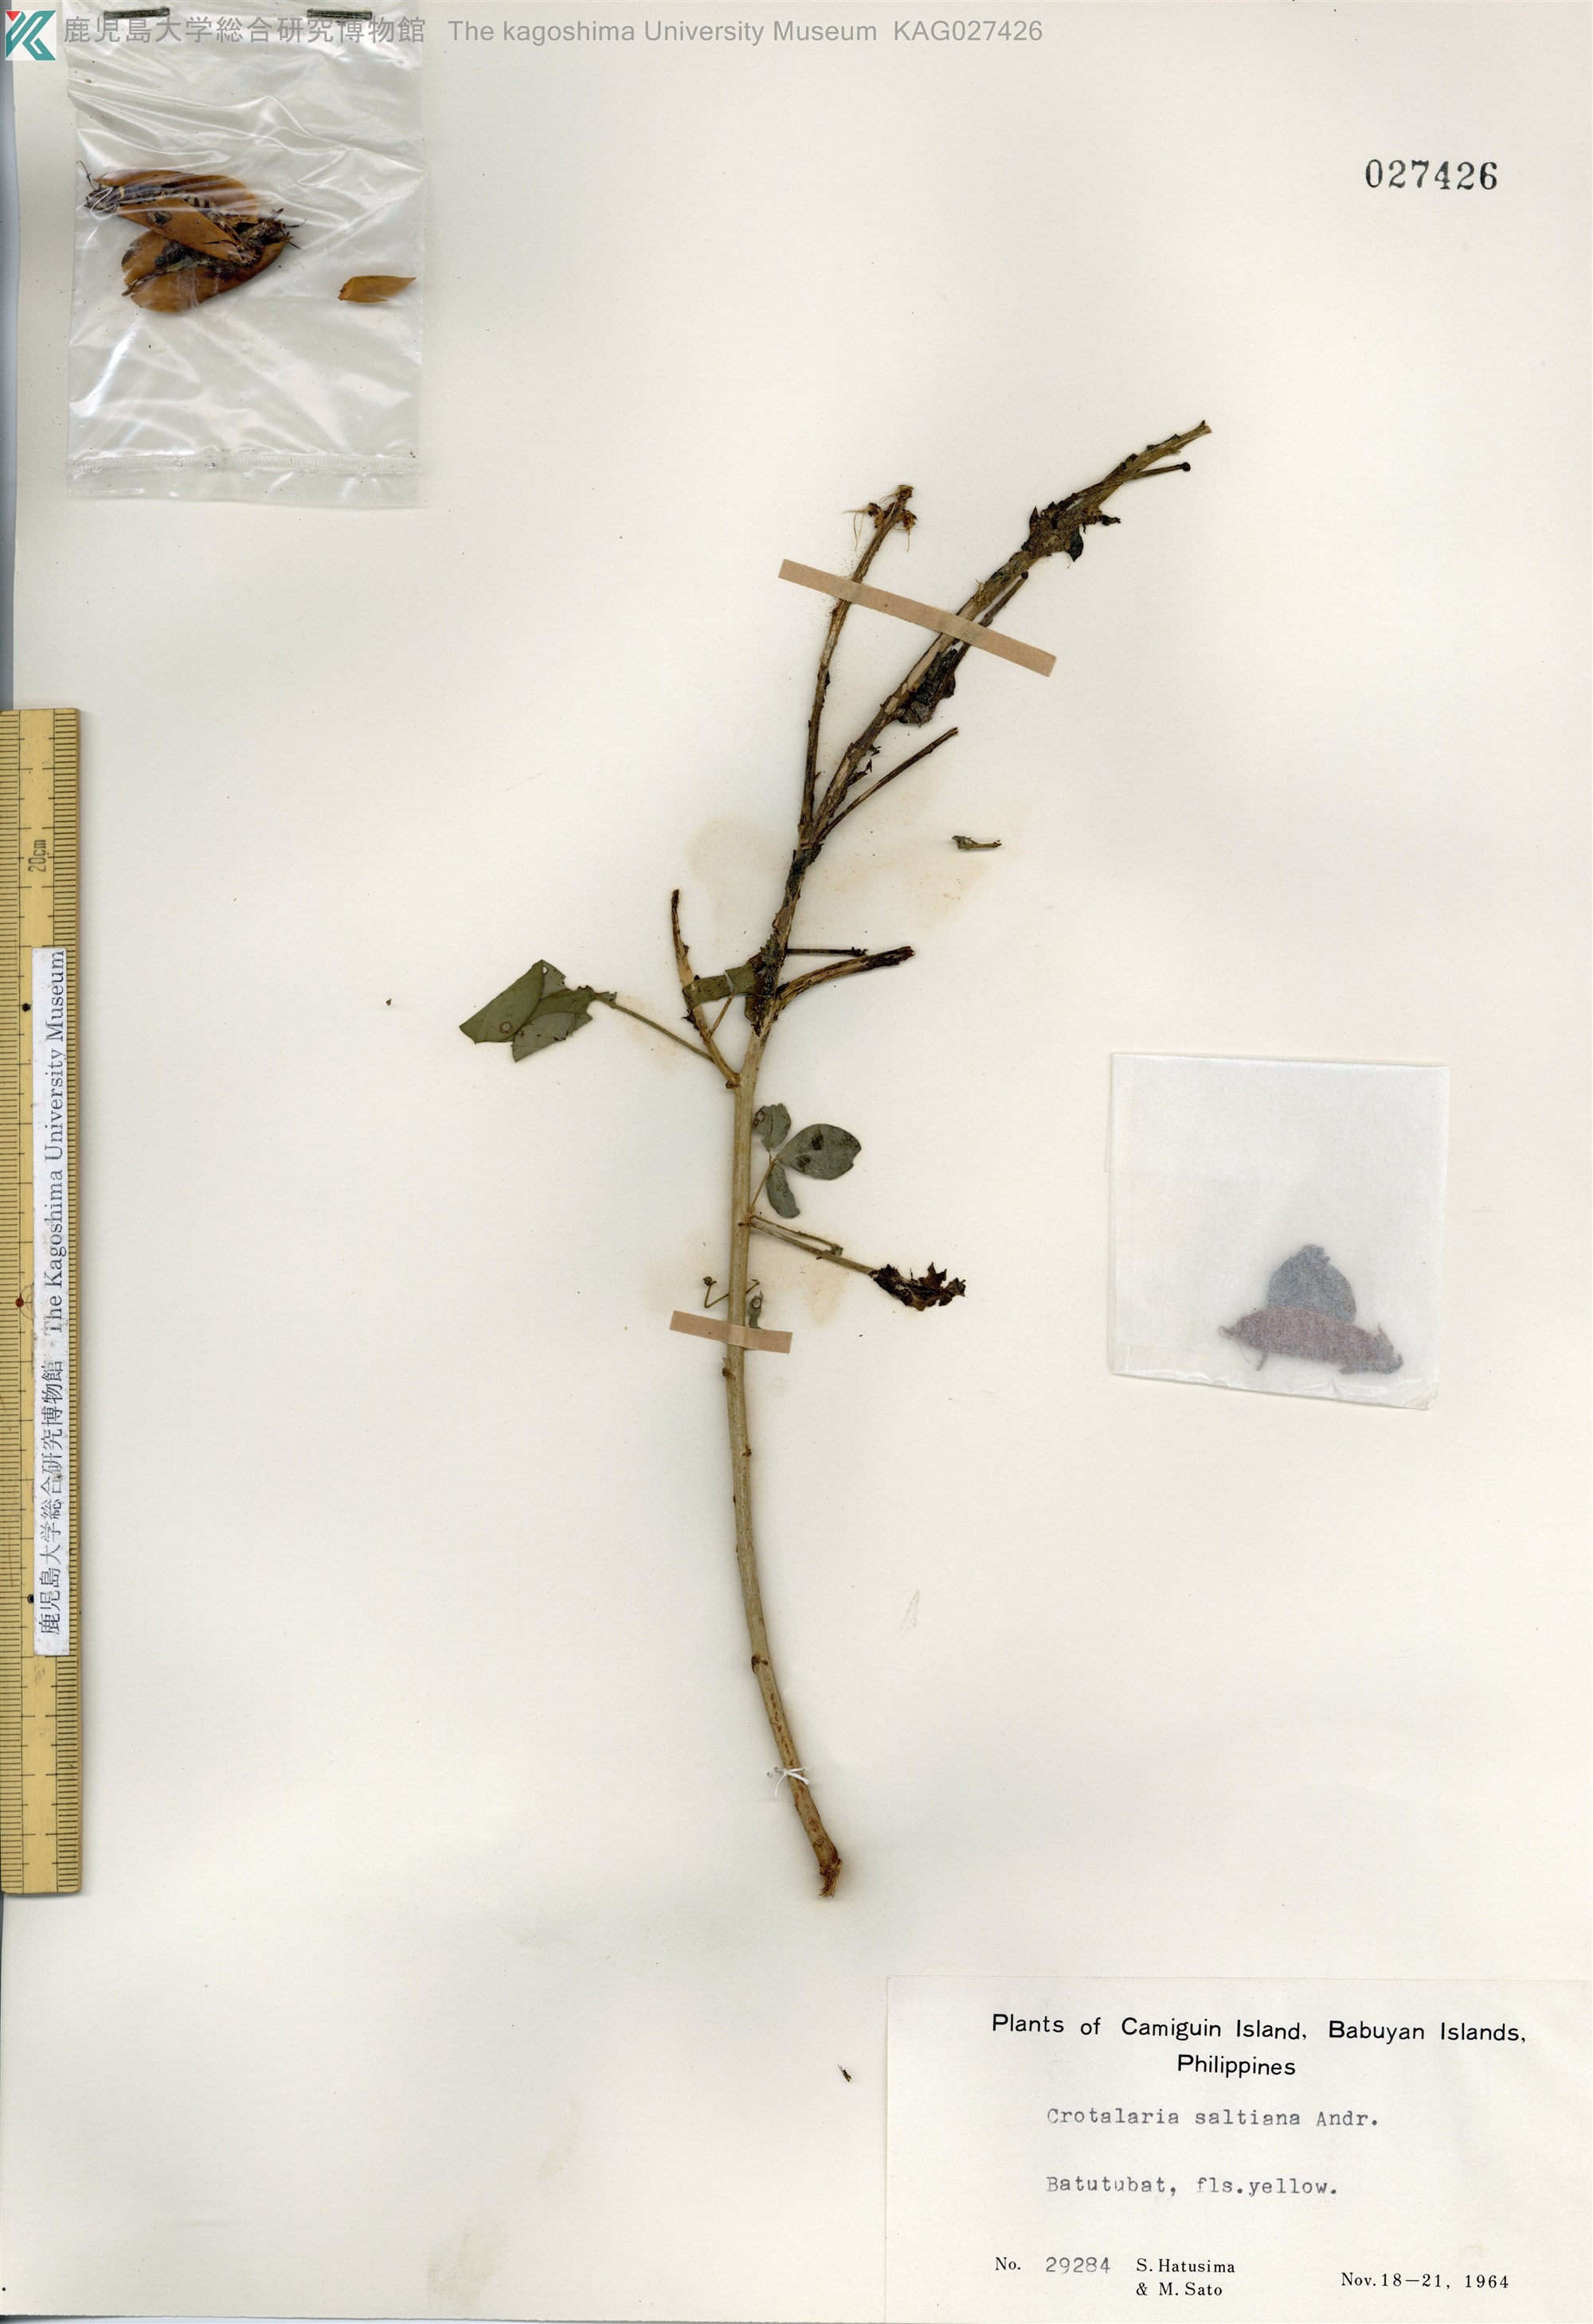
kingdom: Plantae
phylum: Tracheophyta
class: Magnoliopsida
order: Fabales
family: Fabaceae
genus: Crotalaria
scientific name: Crotalaria incana
